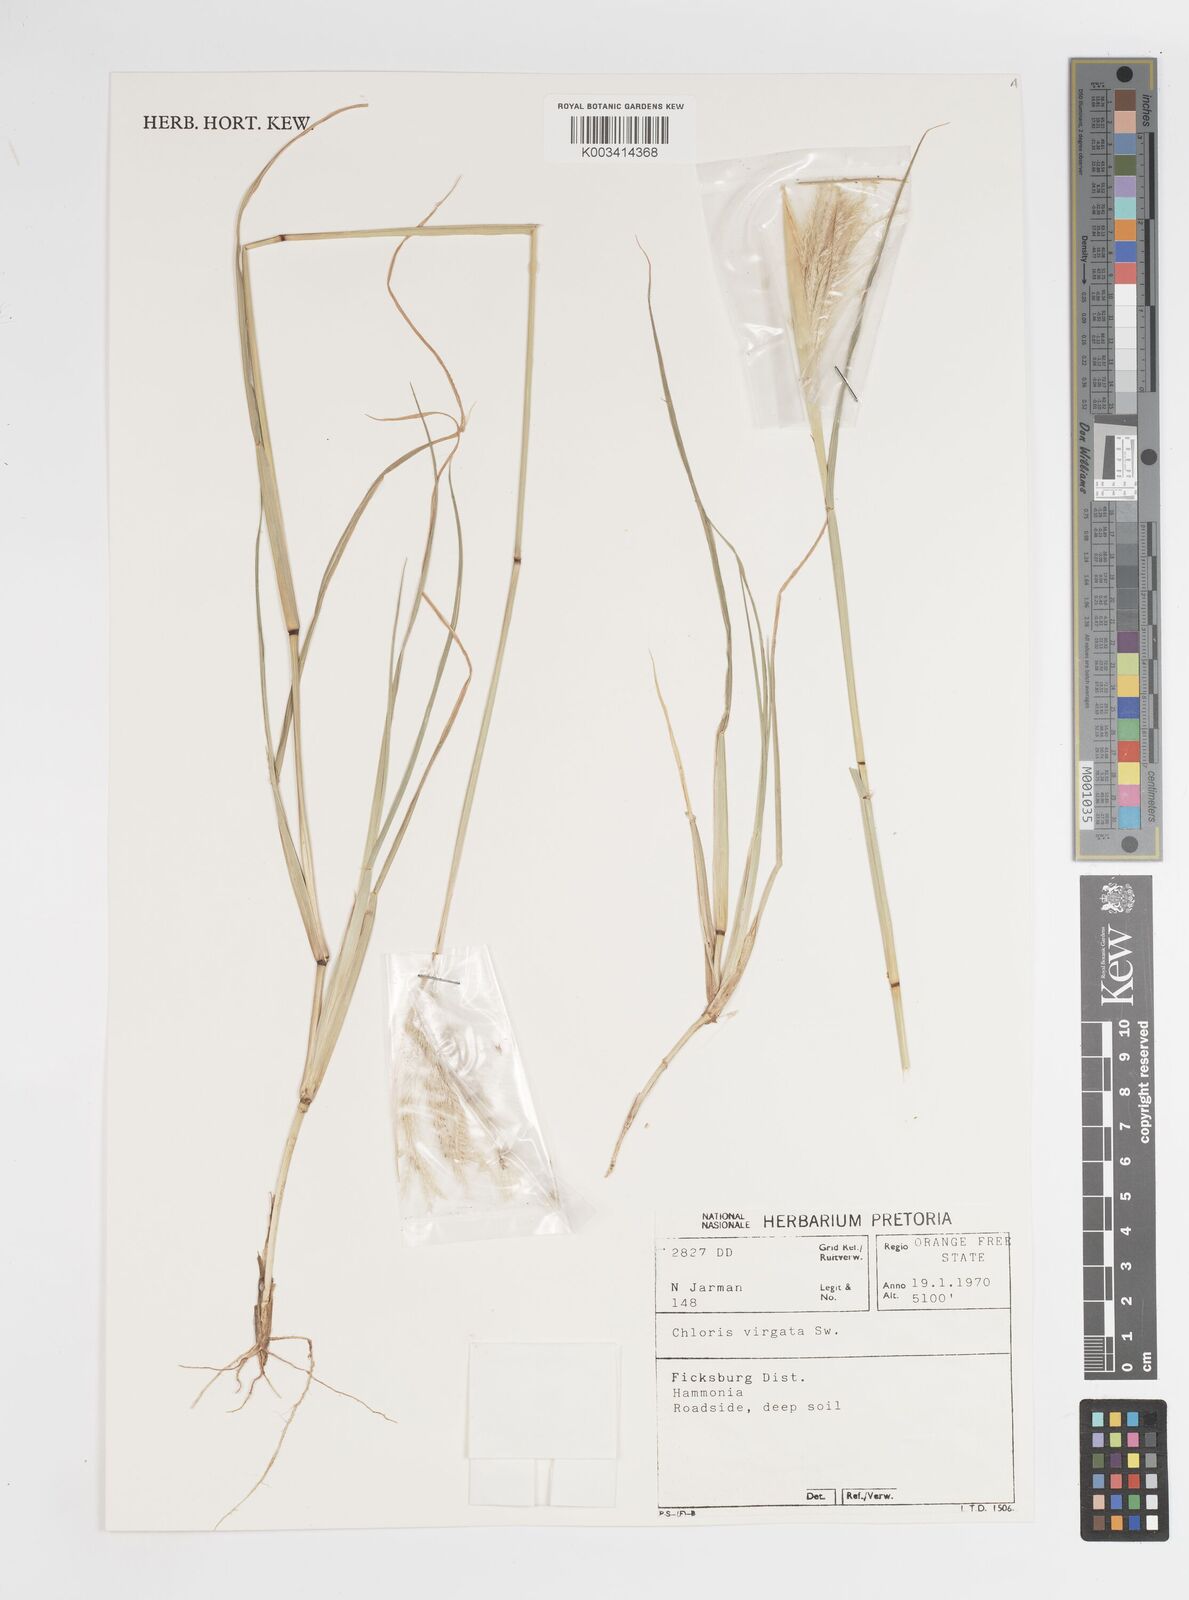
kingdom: Plantae
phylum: Tracheophyta
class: Liliopsida
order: Poales
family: Poaceae
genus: Chloris
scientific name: Chloris virgata
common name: Feathery rhodes-grass
